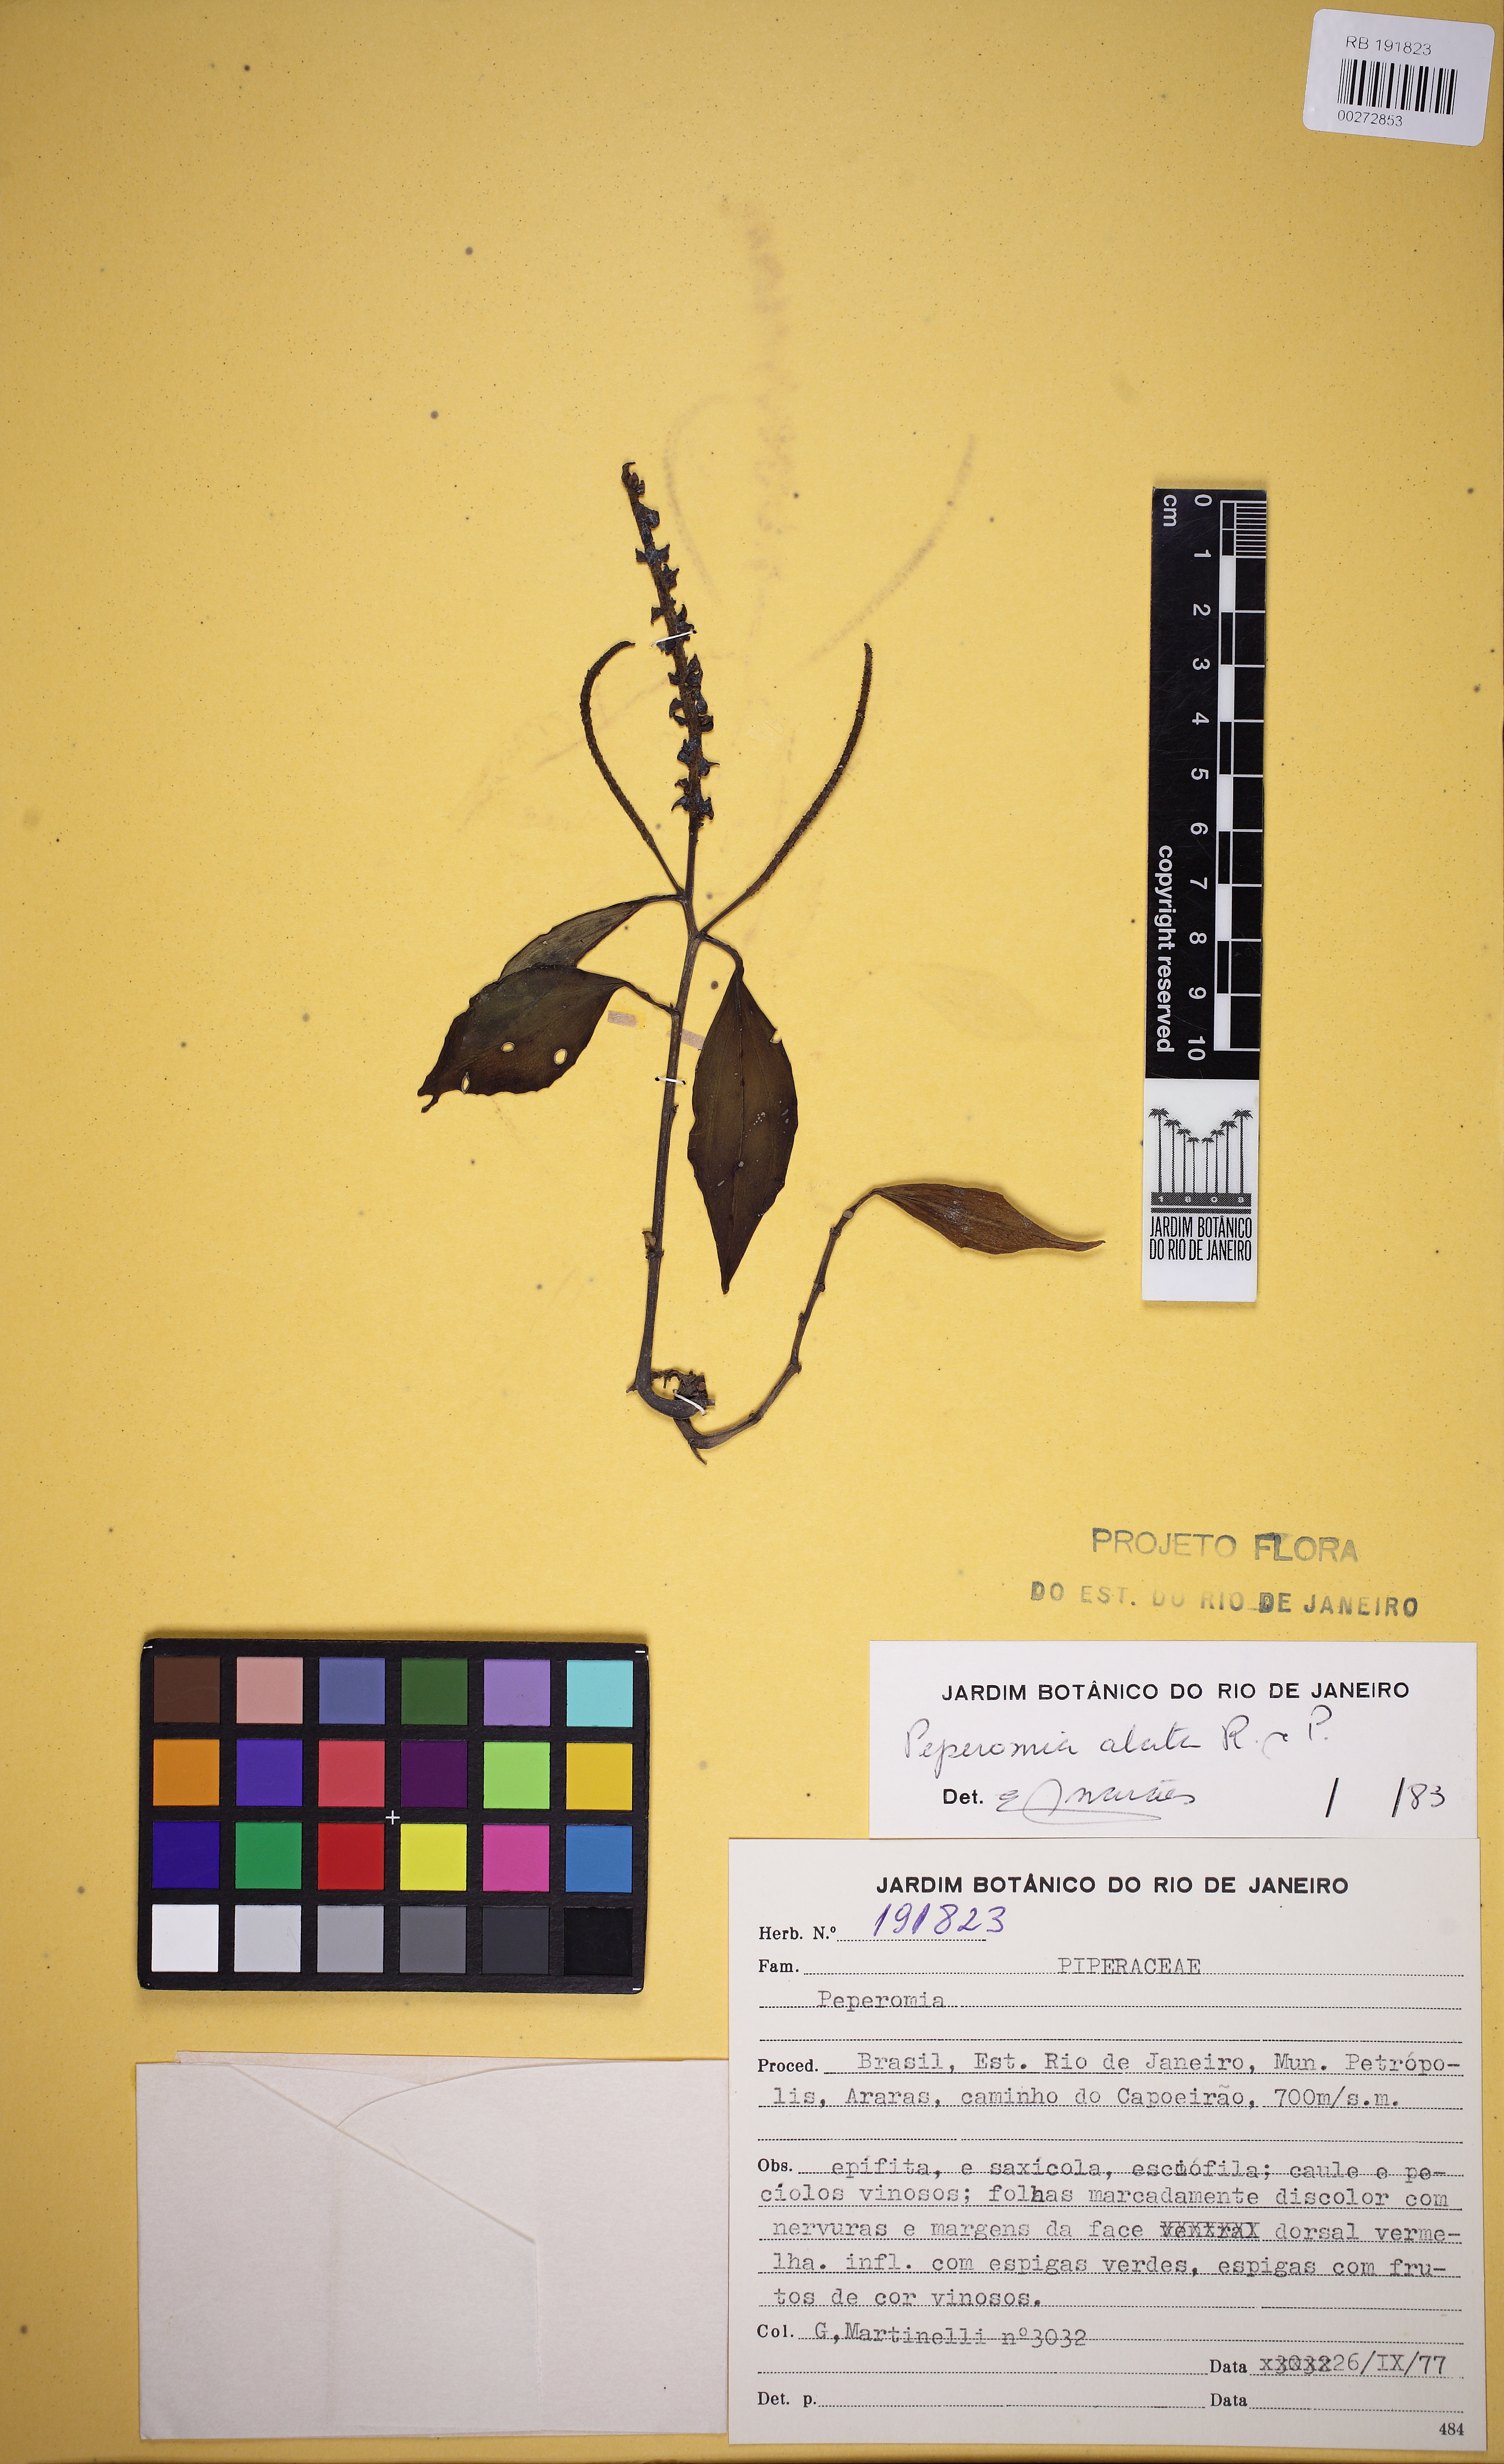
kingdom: Plantae
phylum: Tracheophyta
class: Magnoliopsida
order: Piperales
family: Piperaceae
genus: Peperomia
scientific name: Peperomia alata
